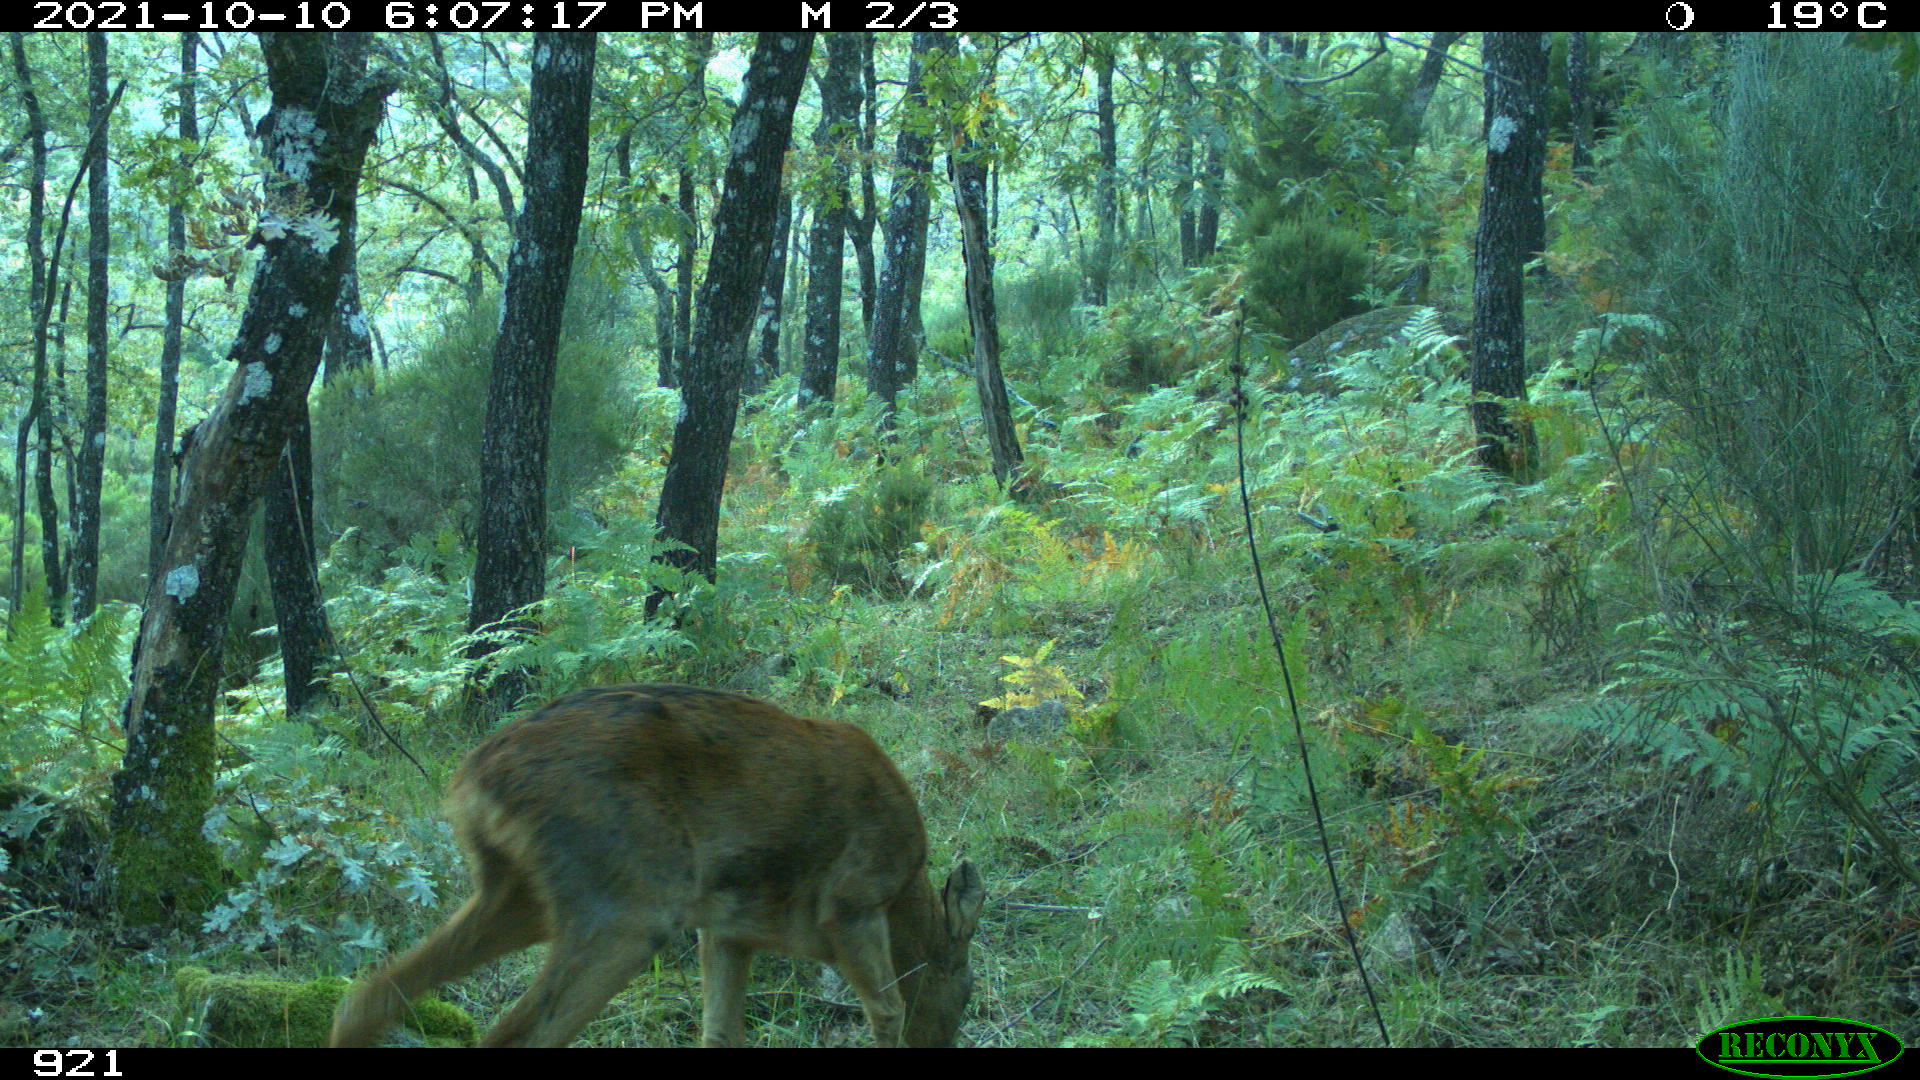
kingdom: Animalia
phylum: Chordata
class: Mammalia
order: Artiodactyla
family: Cervidae
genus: Capreolus
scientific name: Capreolus capreolus
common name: Western roe deer
